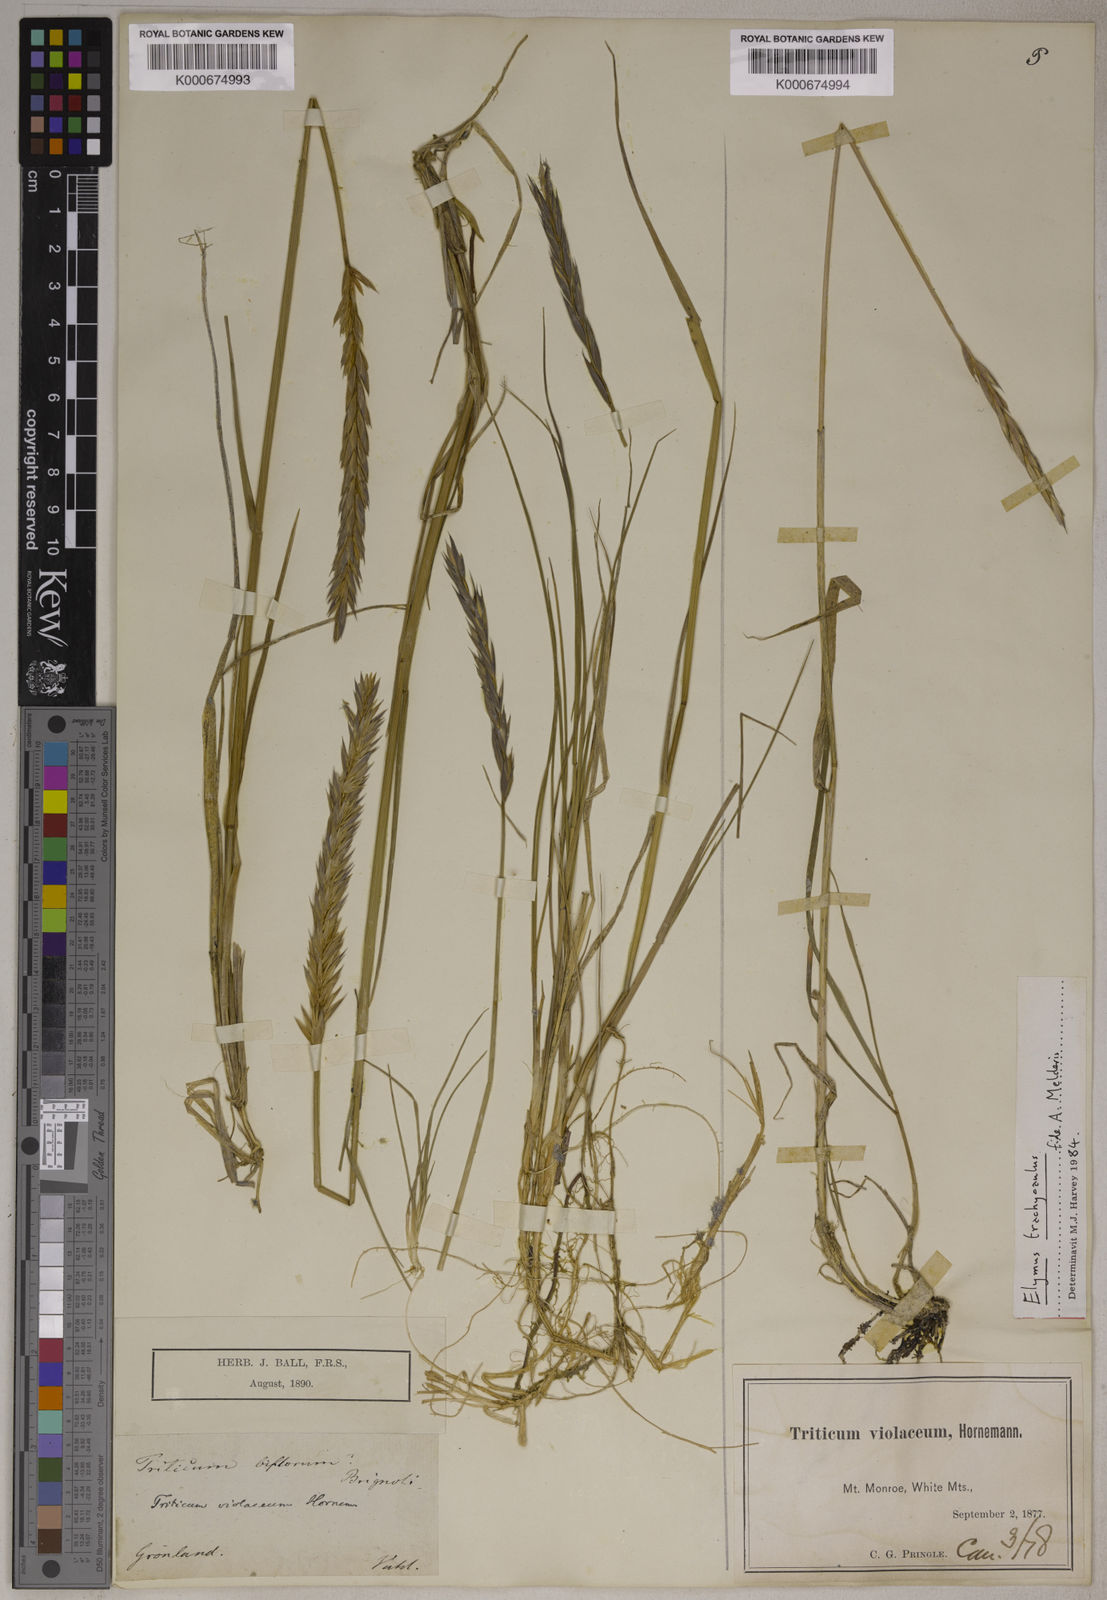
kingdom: Plantae
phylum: Tracheophyta
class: Liliopsida
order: Poales
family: Poaceae
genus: Elymus
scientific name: Elymus violaceus
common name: Arctic wheatgrass
